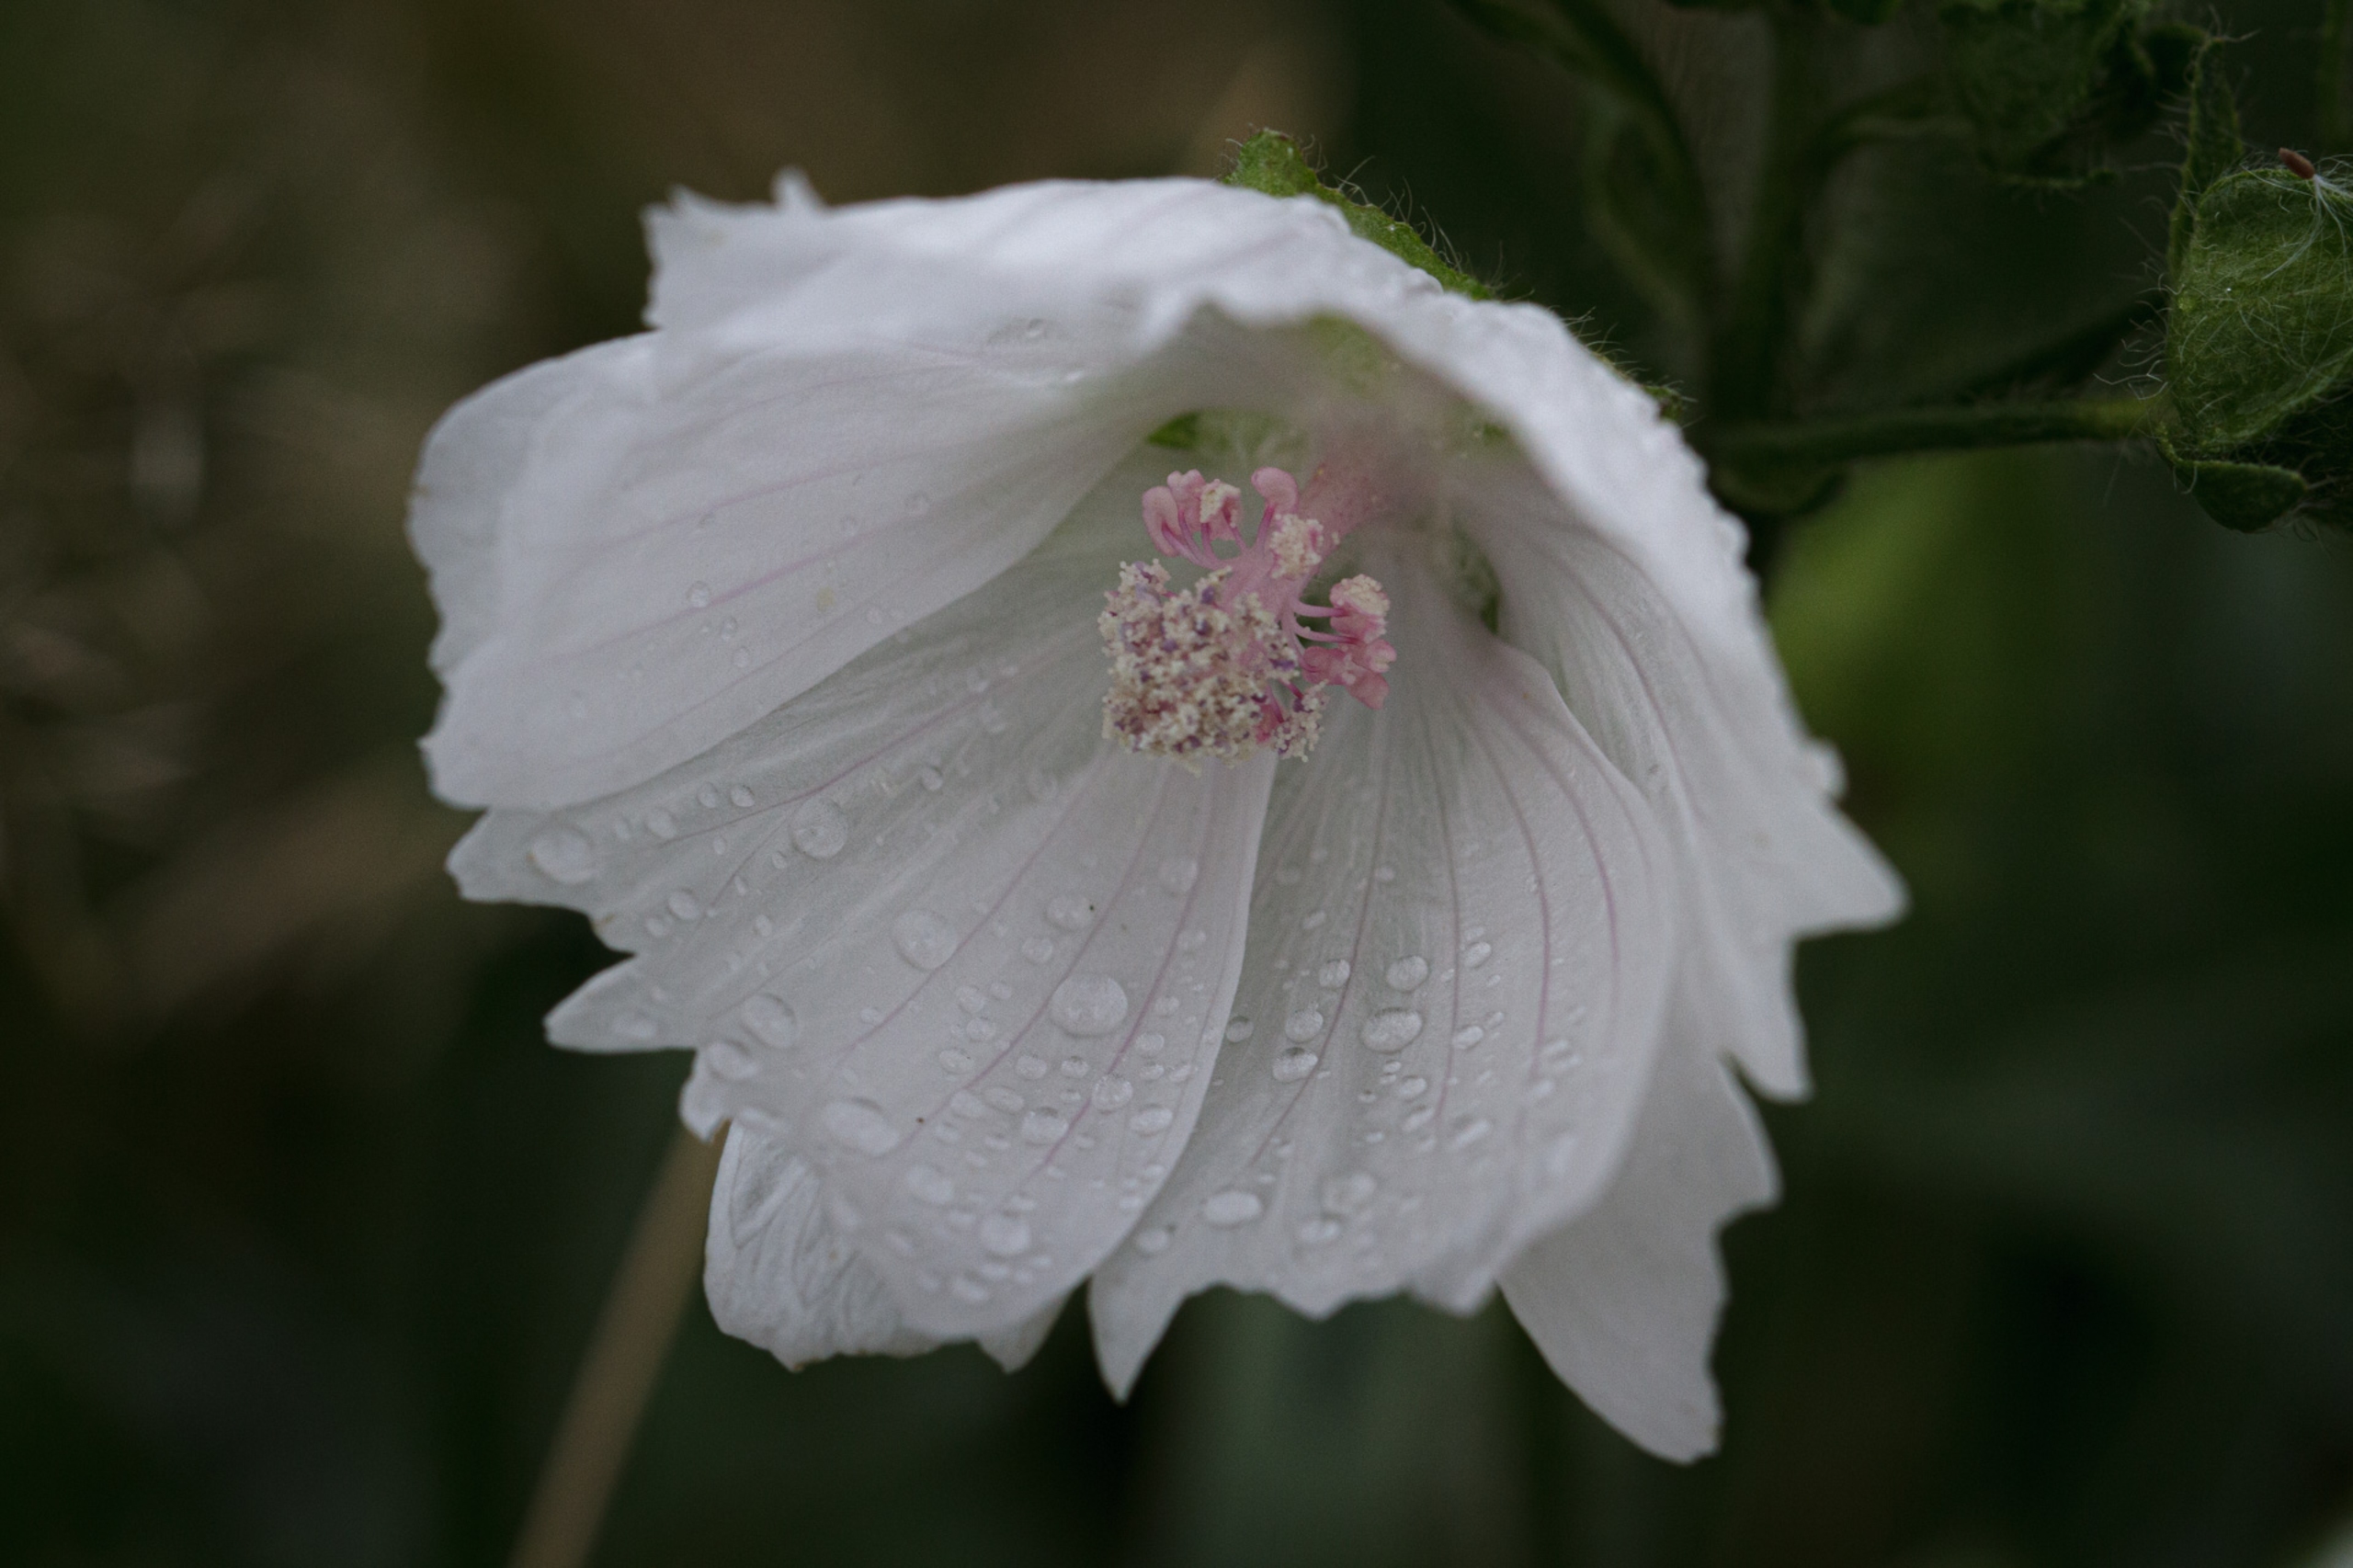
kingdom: Plantae
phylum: Tracheophyta
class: Magnoliopsida
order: Malvales
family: Malvaceae
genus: Malva
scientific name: Malva moschata
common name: Moskus-katost
